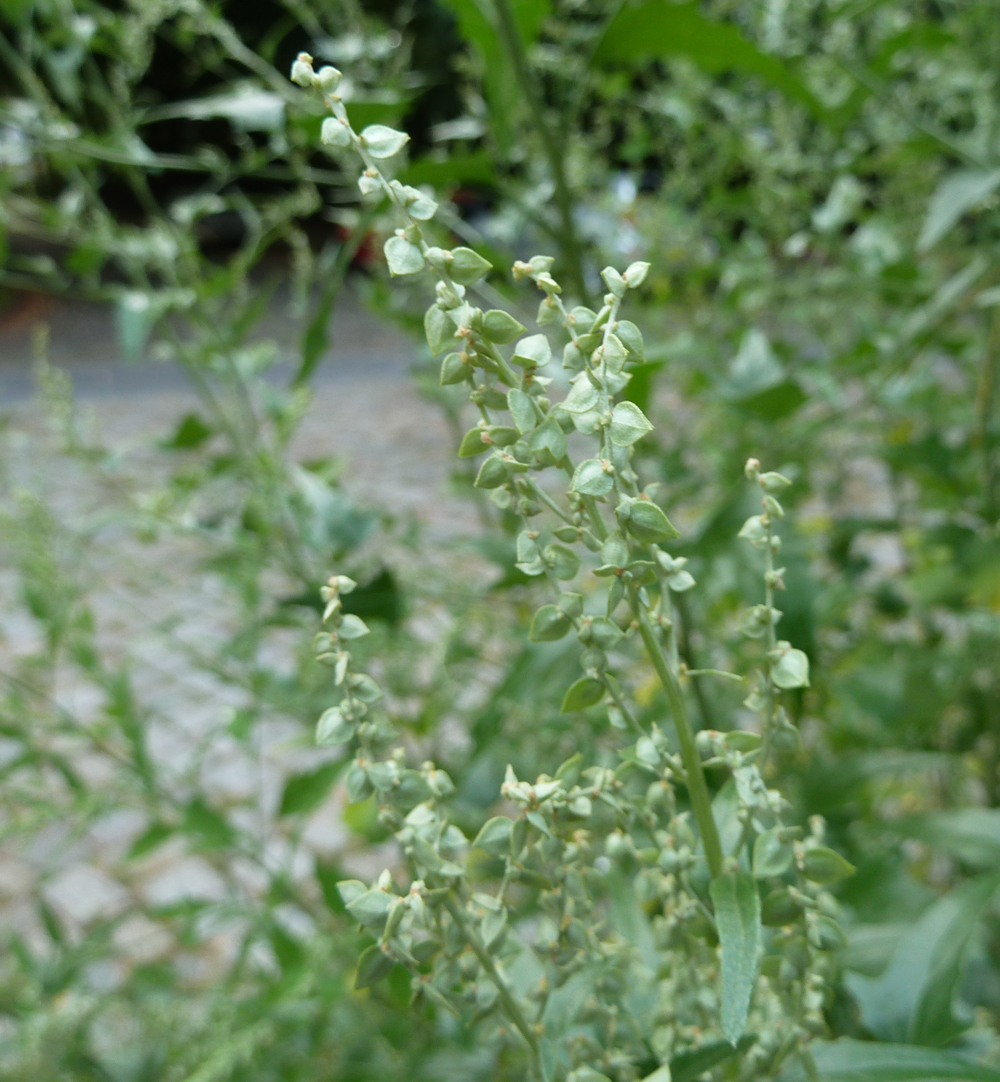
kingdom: Plantae
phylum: Tracheophyta
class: Magnoliopsida
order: Caryophyllales
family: Amaranthaceae
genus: Atriplex
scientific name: Atriplex sagittata
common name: Purple orache
